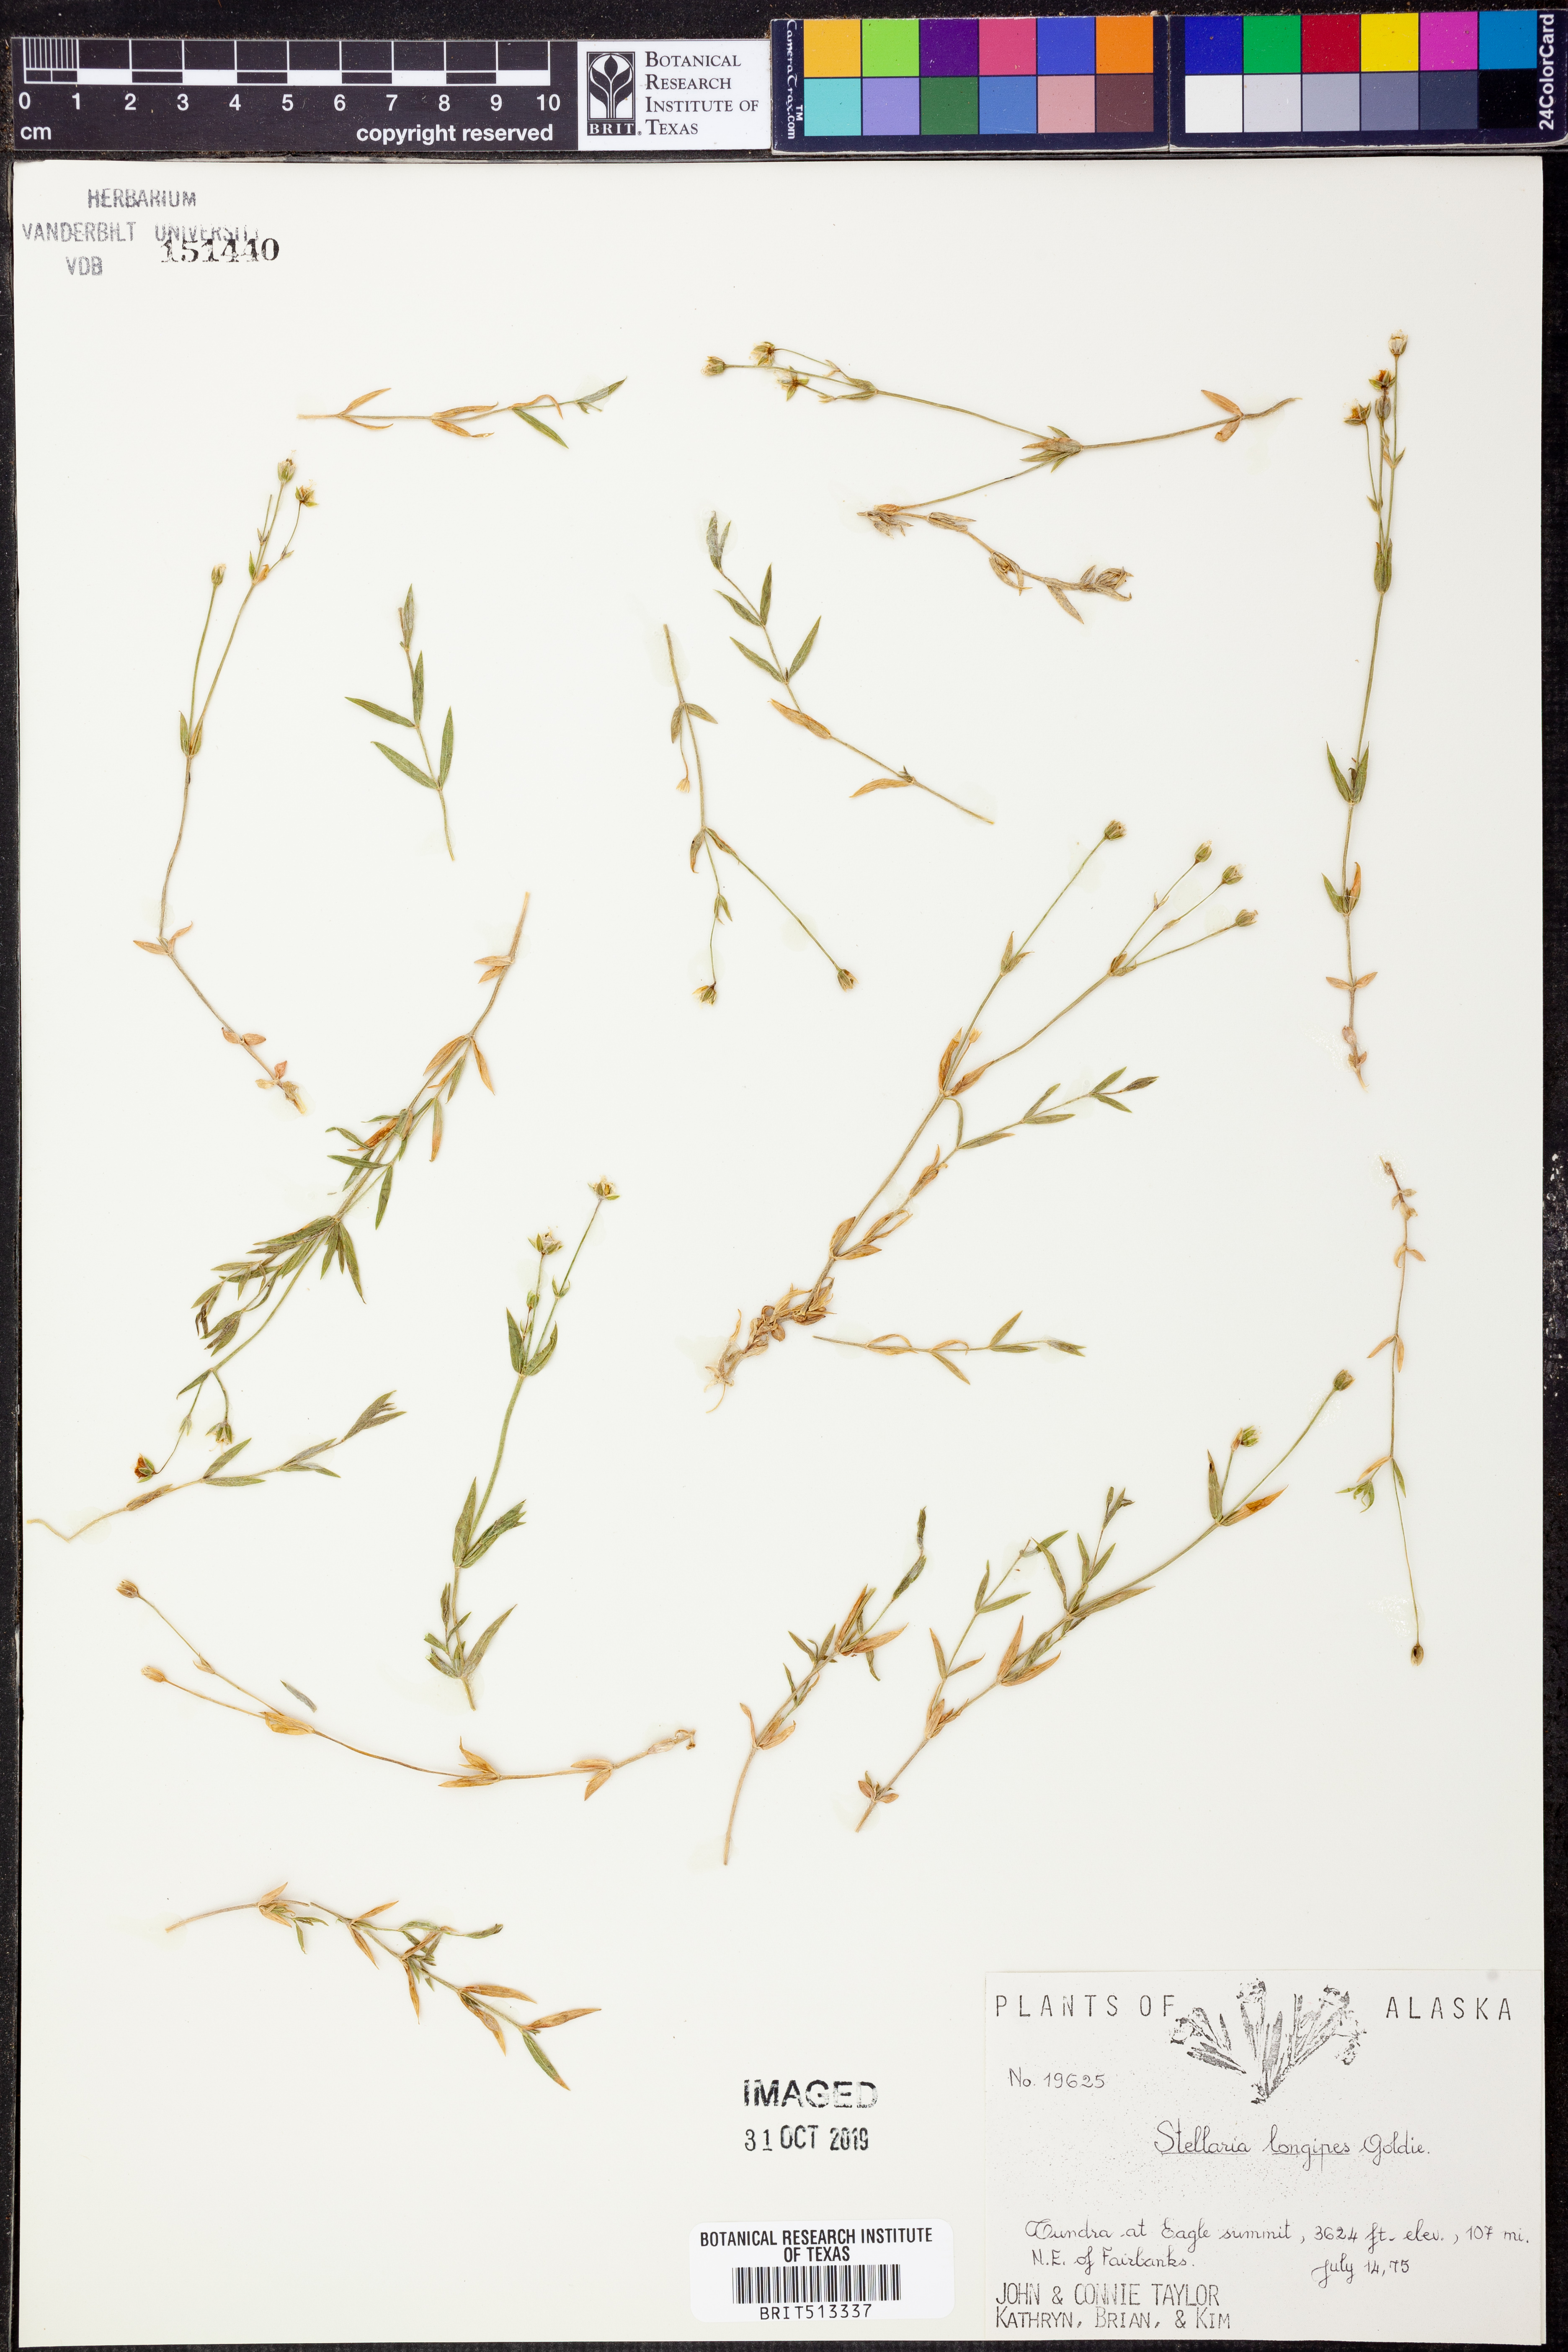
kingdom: Plantae
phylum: Tracheophyta
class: Magnoliopsida
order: Caryophyllales
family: Caryophyllaceae
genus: Stellaria
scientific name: Stellaria longipes
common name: Goldie's starwort
